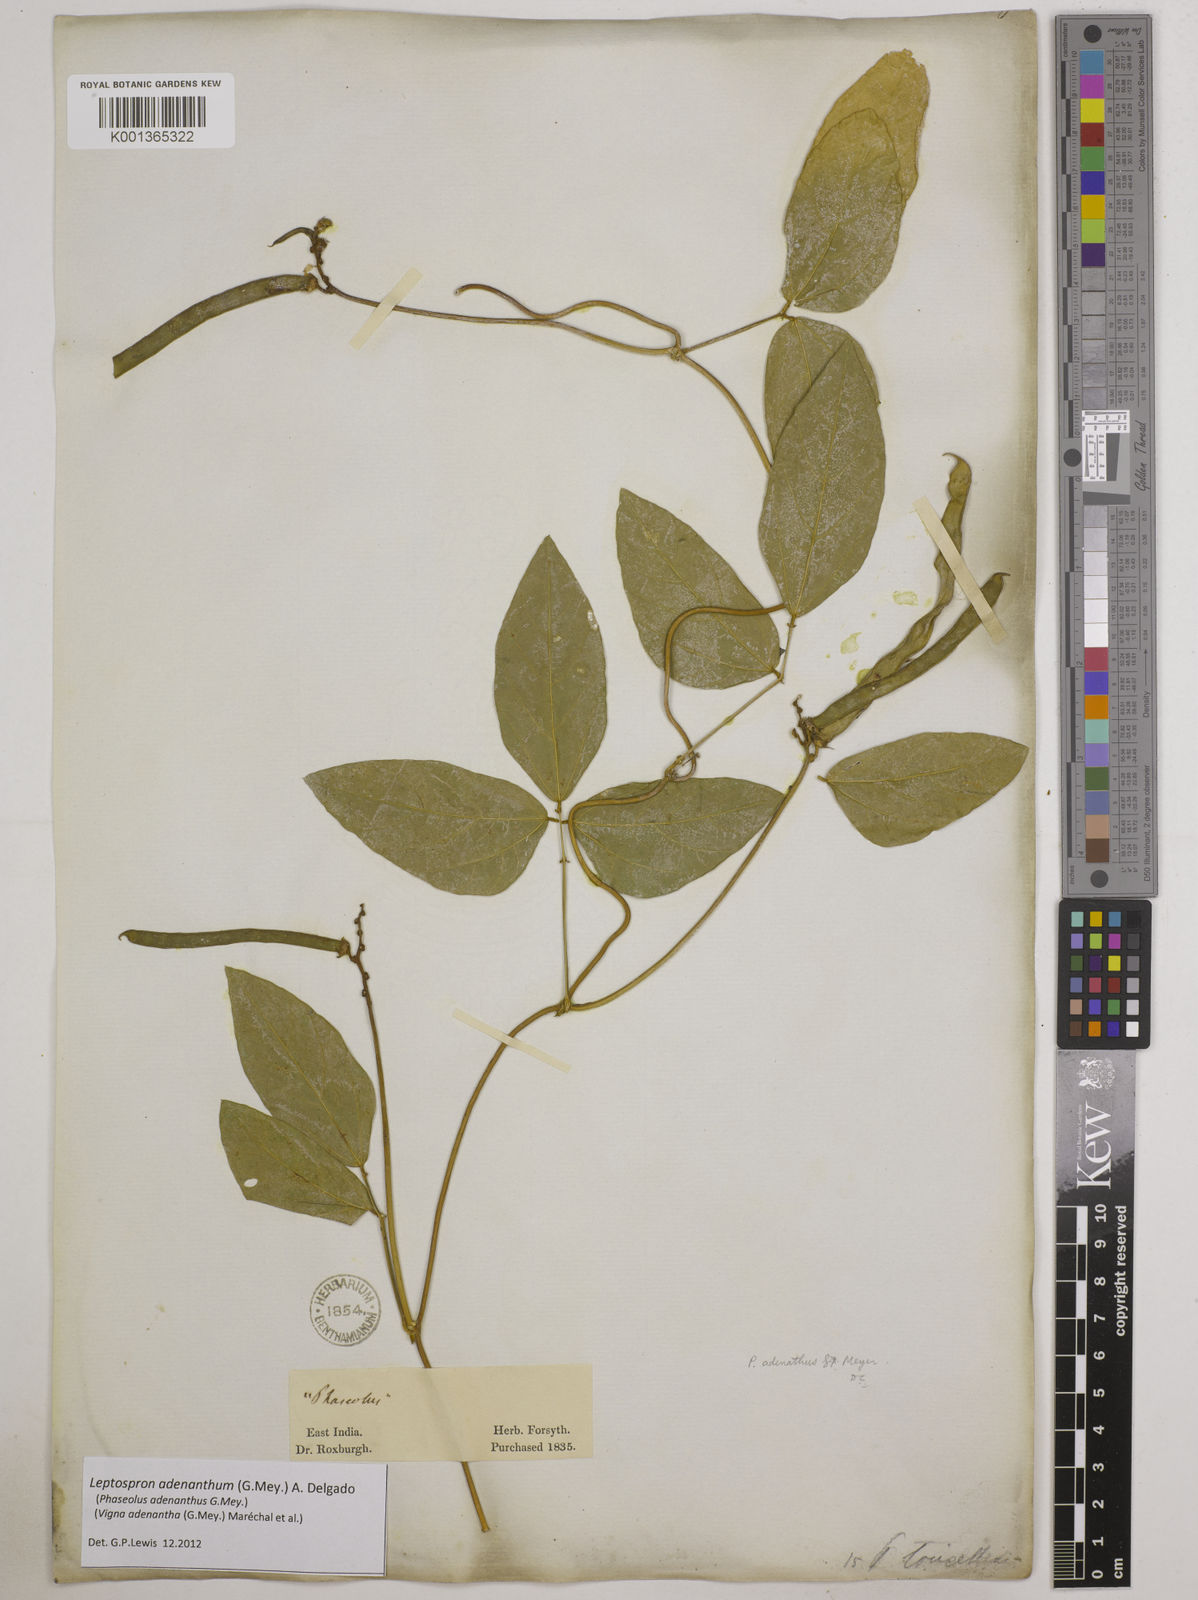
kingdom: Plantae
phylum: Tracheophyta
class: Magnoliopsida
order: Fabales
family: Fabaceae
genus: Leptospron
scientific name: Leptospron adenanthum
